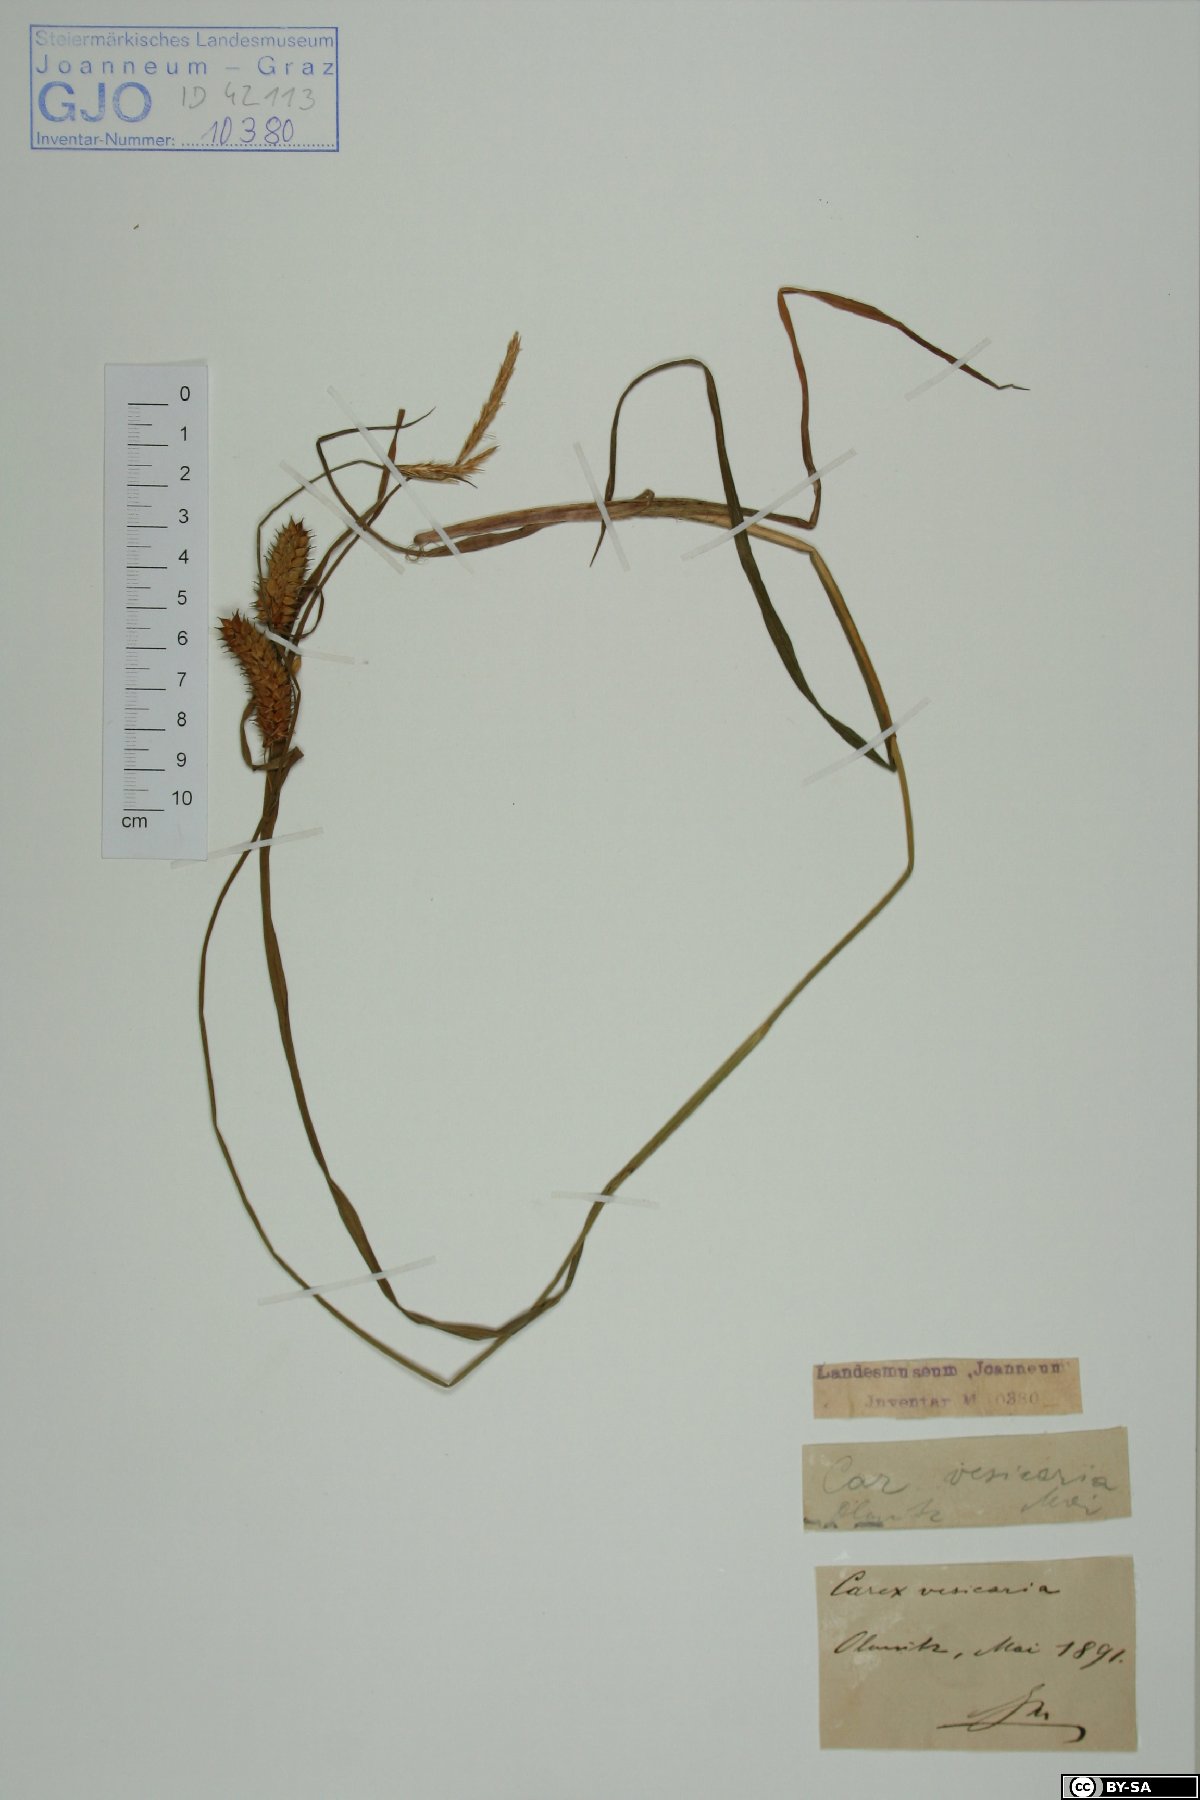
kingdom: Plantae
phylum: Tracheophyta
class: Liliopsida
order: Poales
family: Cyperaceae
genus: Carex
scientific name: Carex vesicaria
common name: Bladder-sedge
